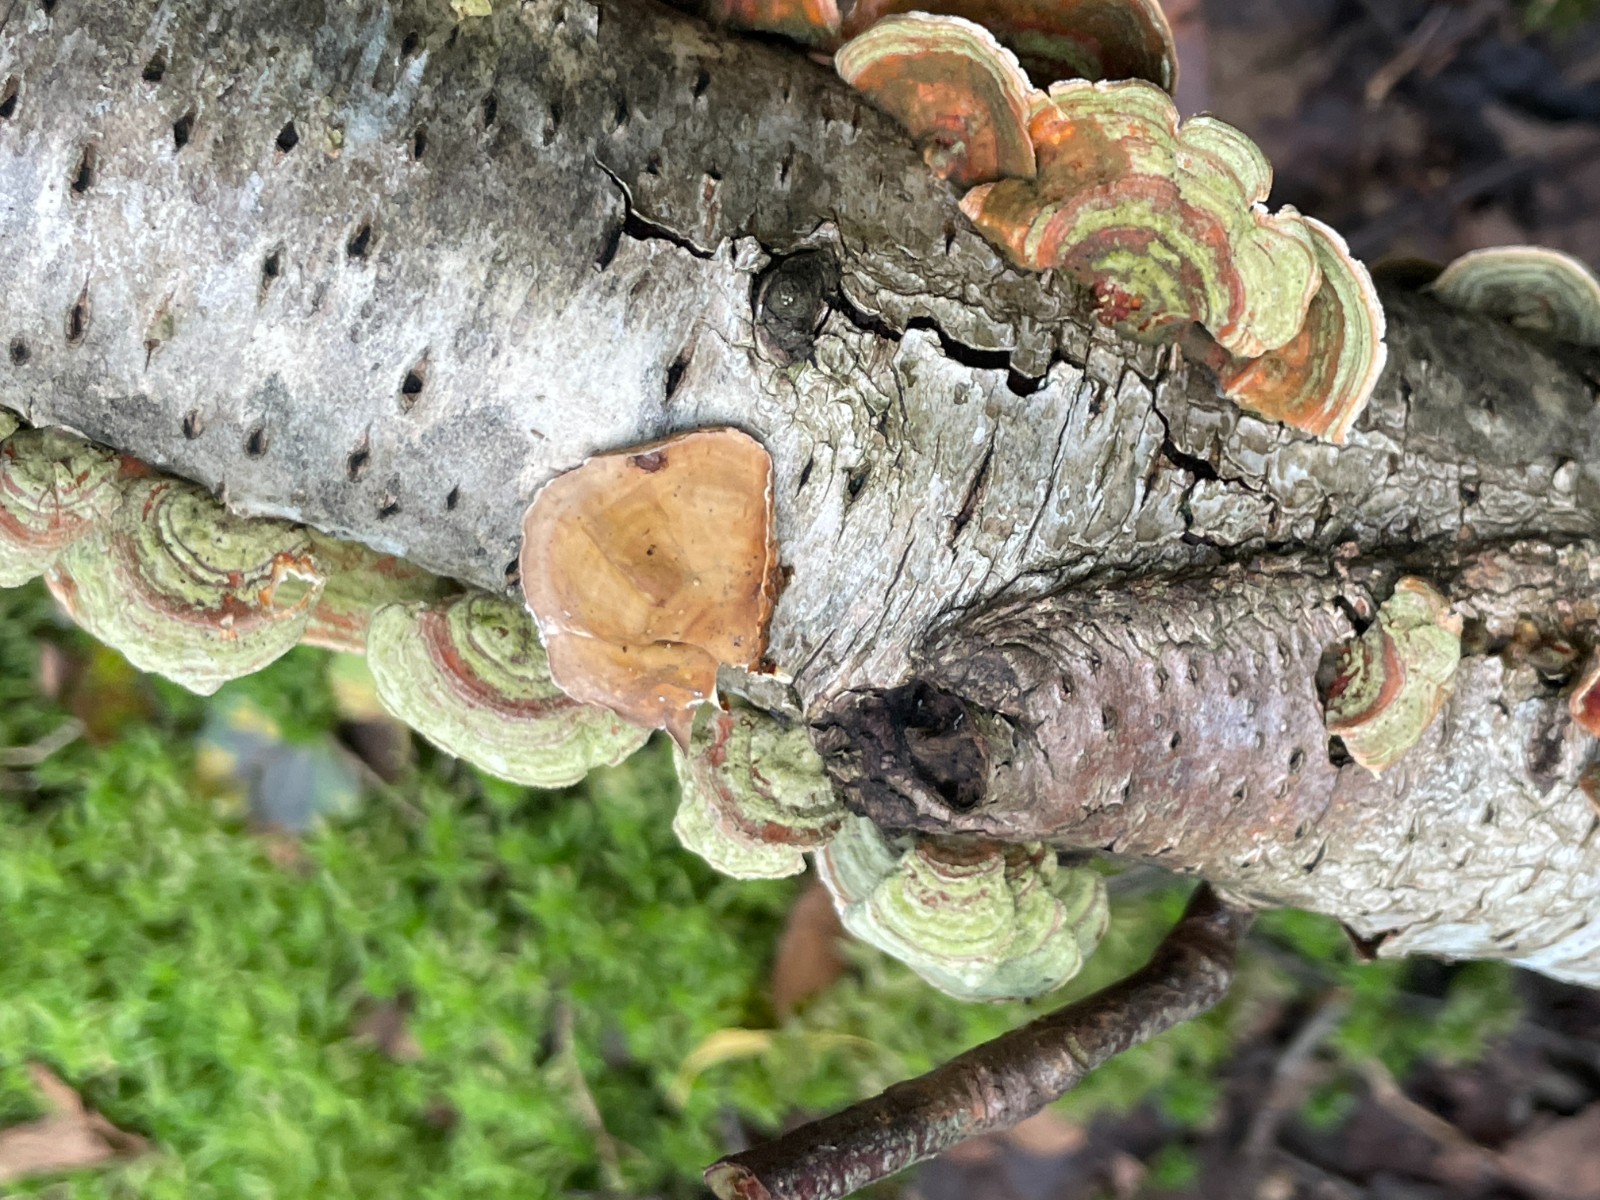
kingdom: Fungi
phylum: Basidiomycota
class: Agaricomycetes
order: Russulales
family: Stereaceae
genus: Stereum
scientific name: Stereum subtomentosum
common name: smuk lædersvamp
